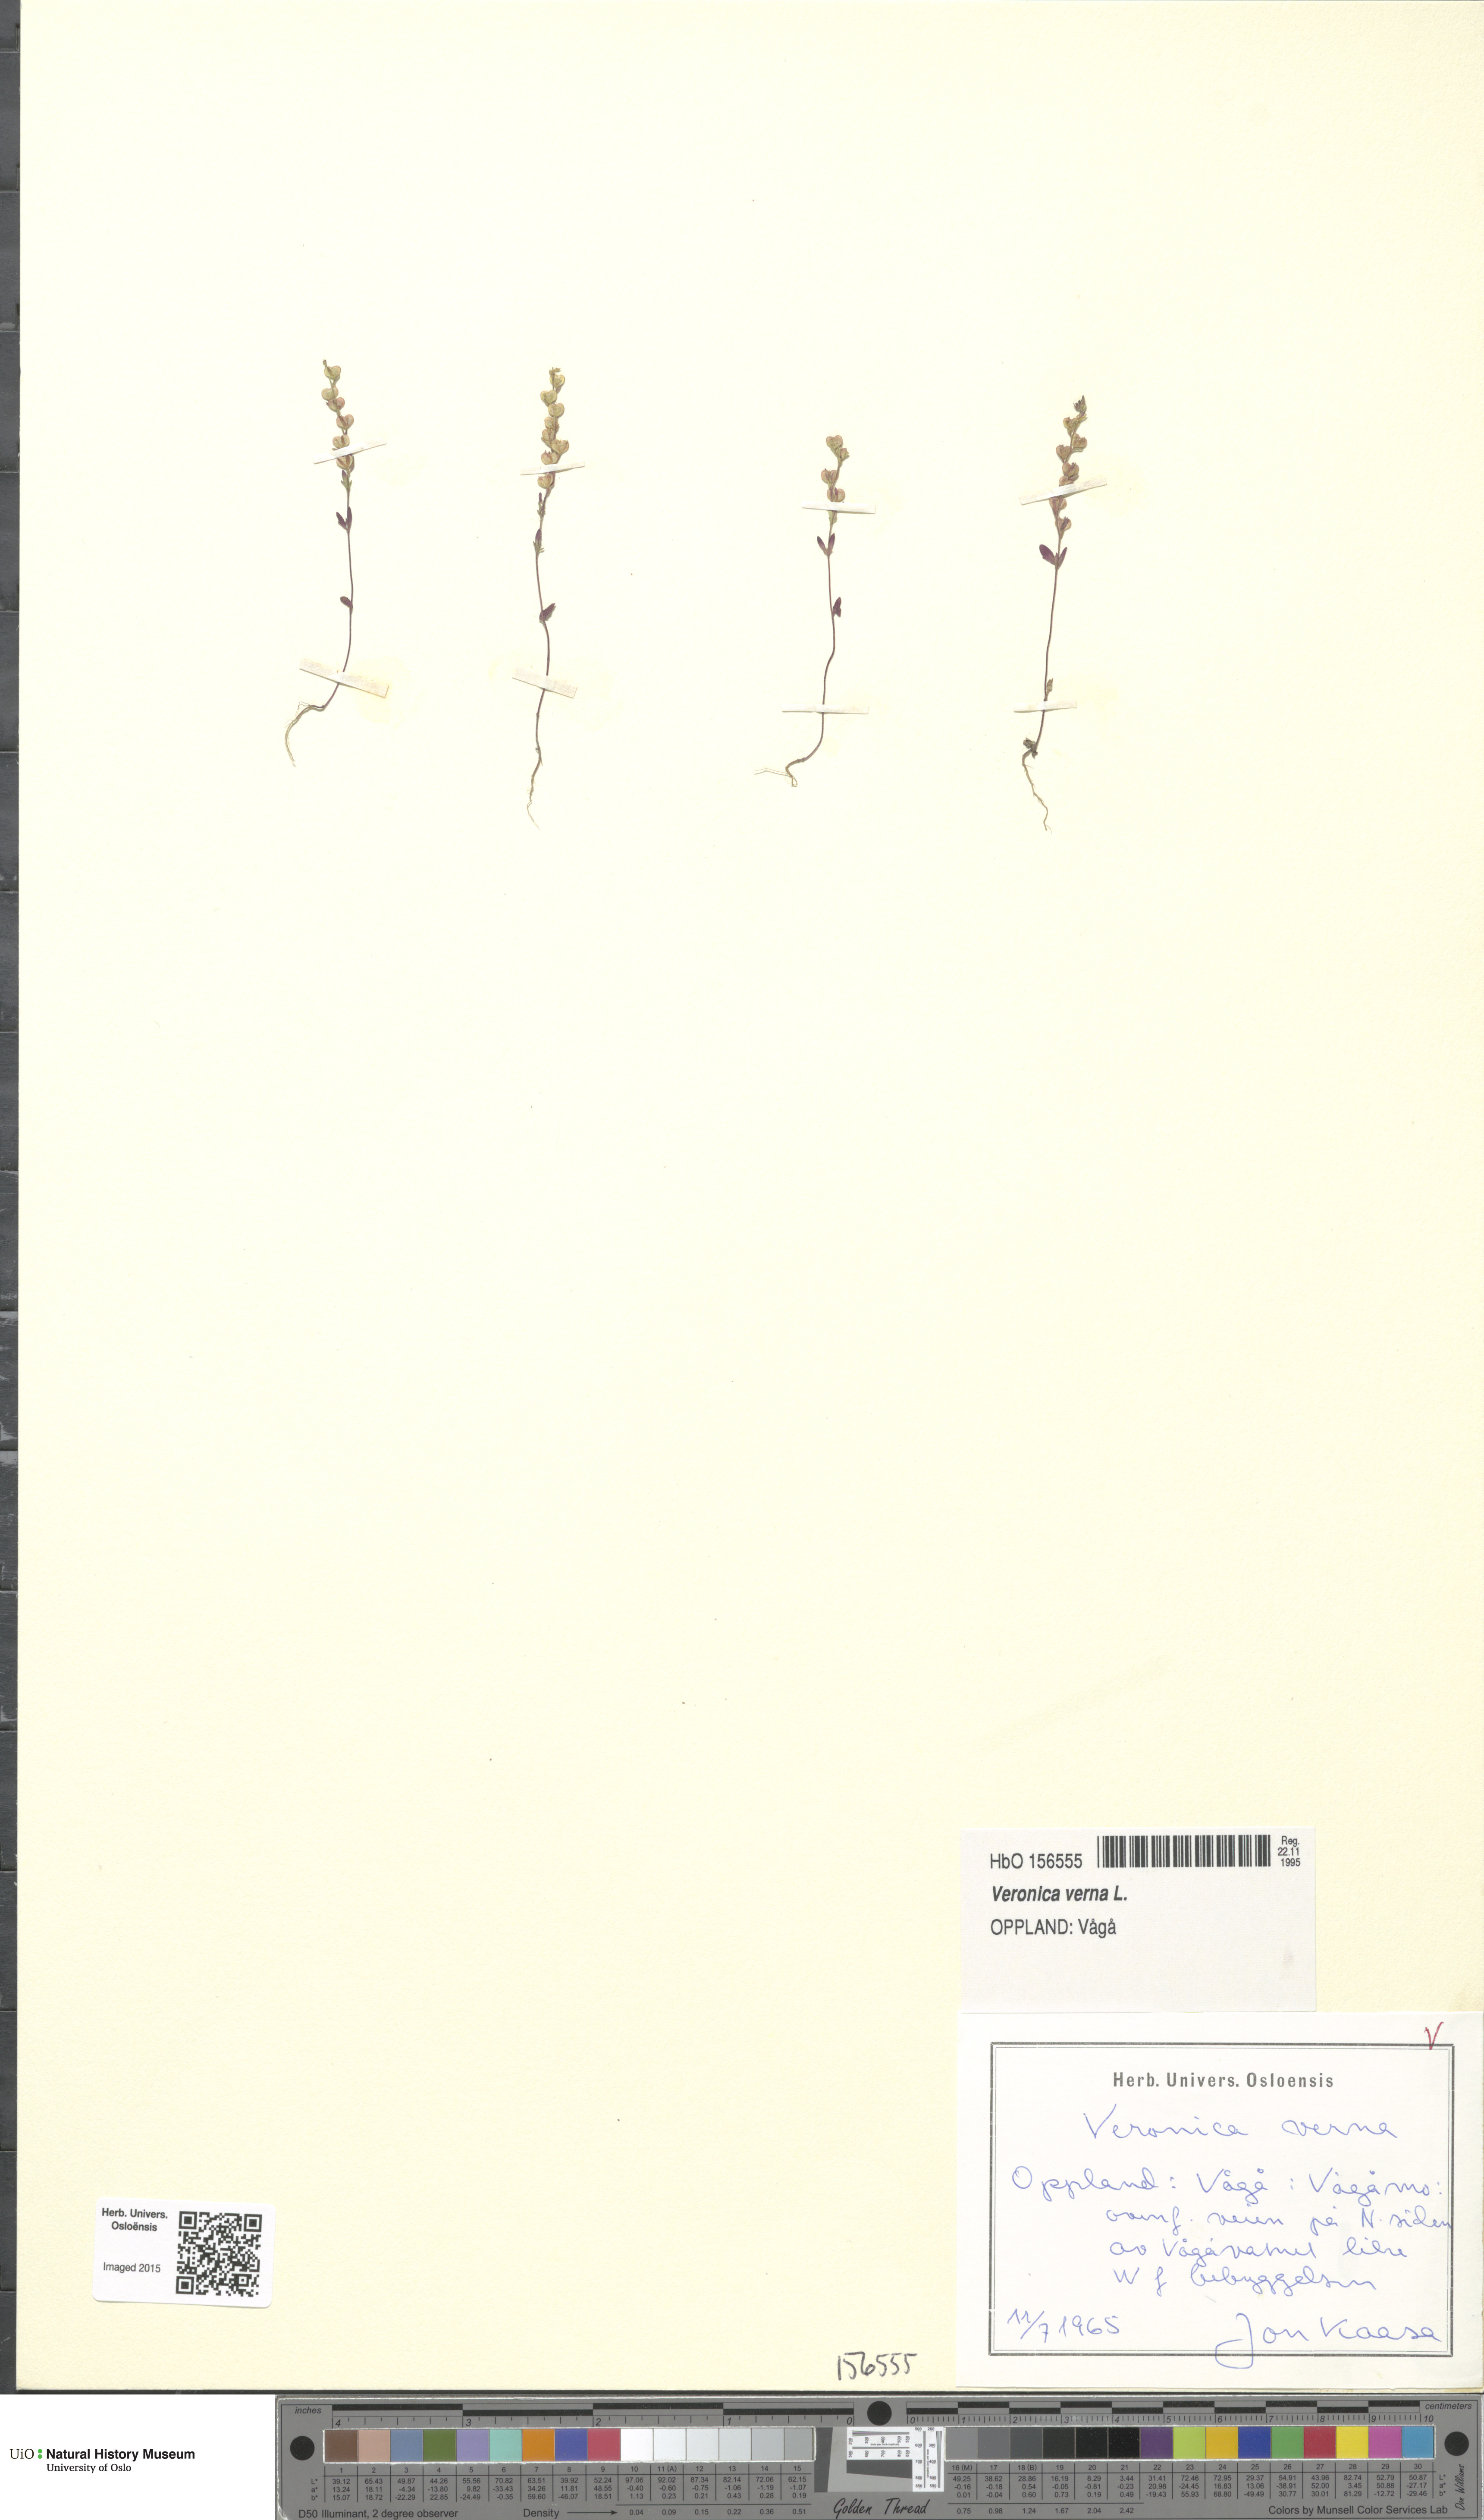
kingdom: Plantae
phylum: Tracheophyta
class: Magnoliopsida
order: Lamiales
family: Plantaginaceae
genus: Veronica
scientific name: Veronica verna
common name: Spring speedwell
